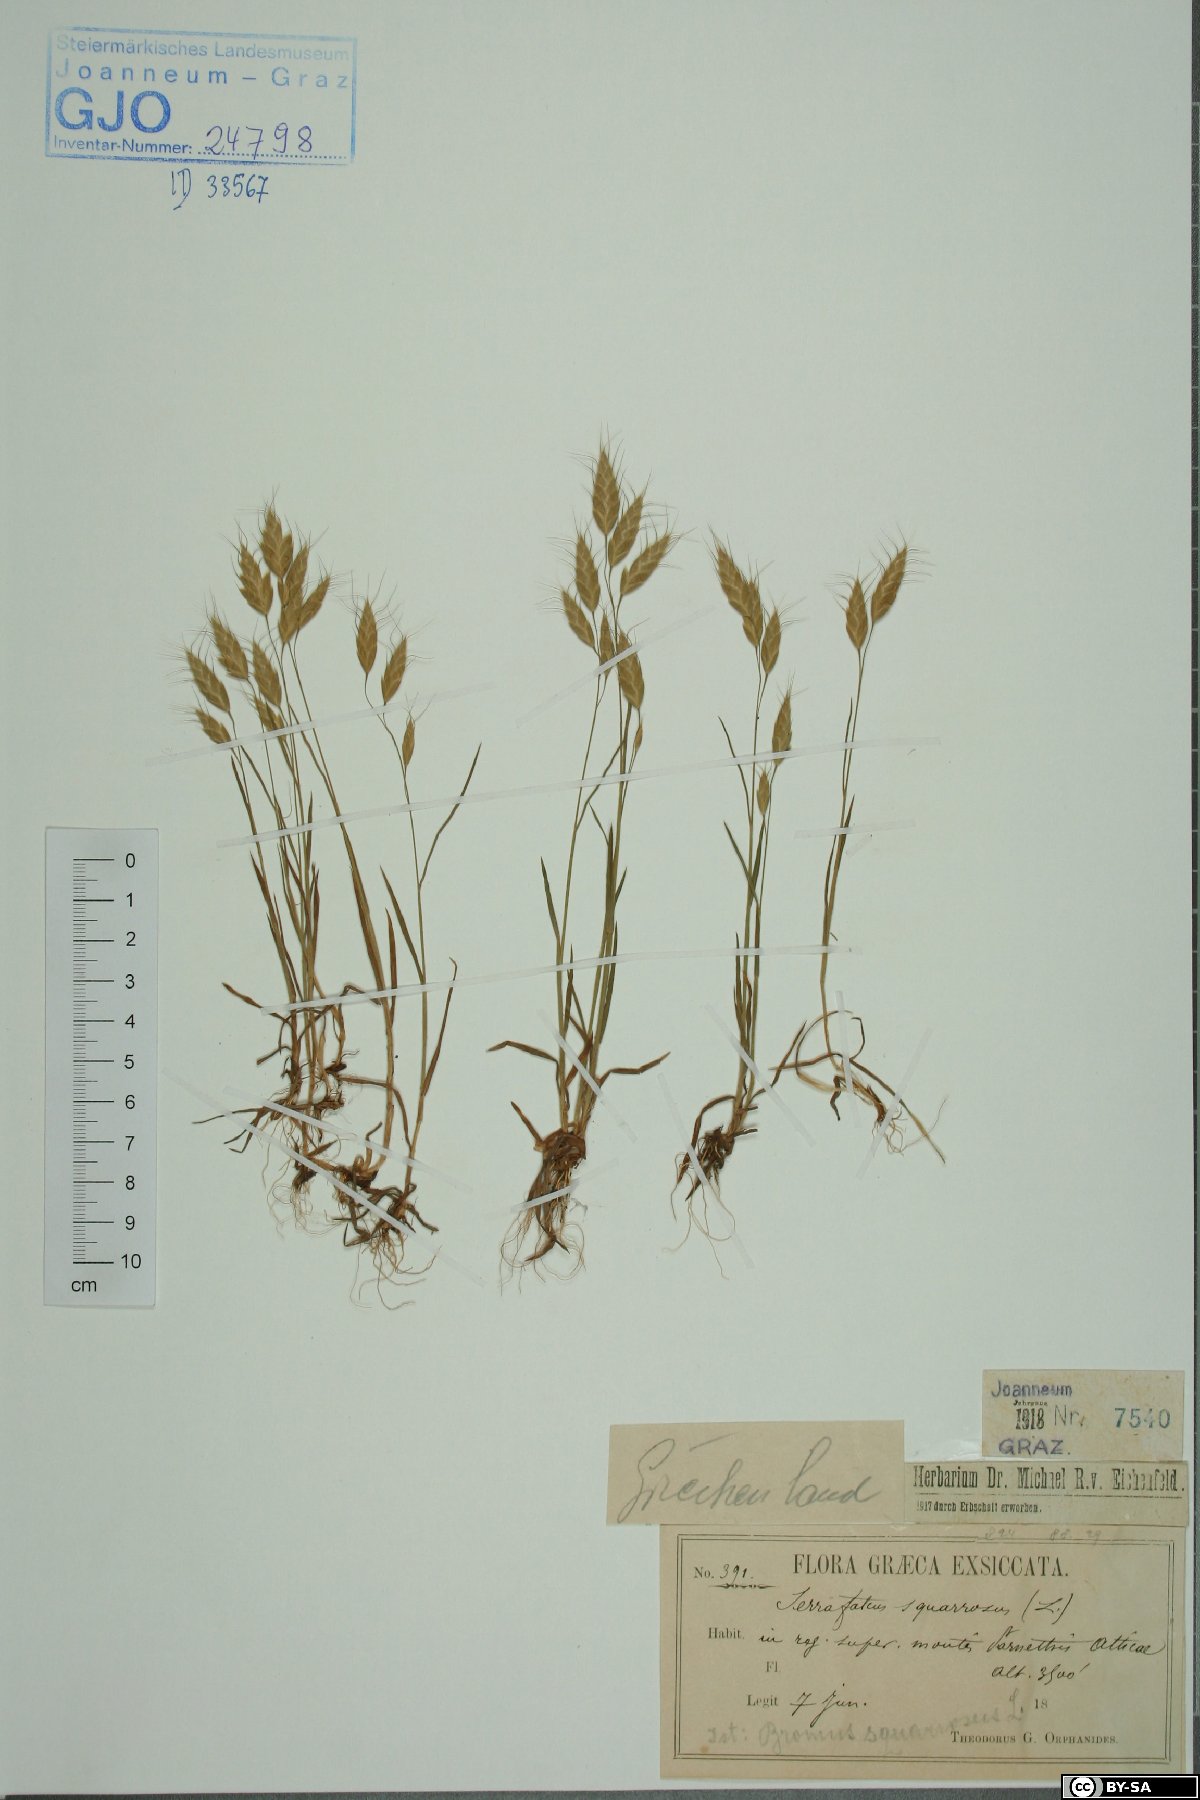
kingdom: Plantae
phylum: Tracheophyta
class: Liliopsida
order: Poales
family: Poaceae
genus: Bromus
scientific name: Bromus squarrosus
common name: Corn brome
